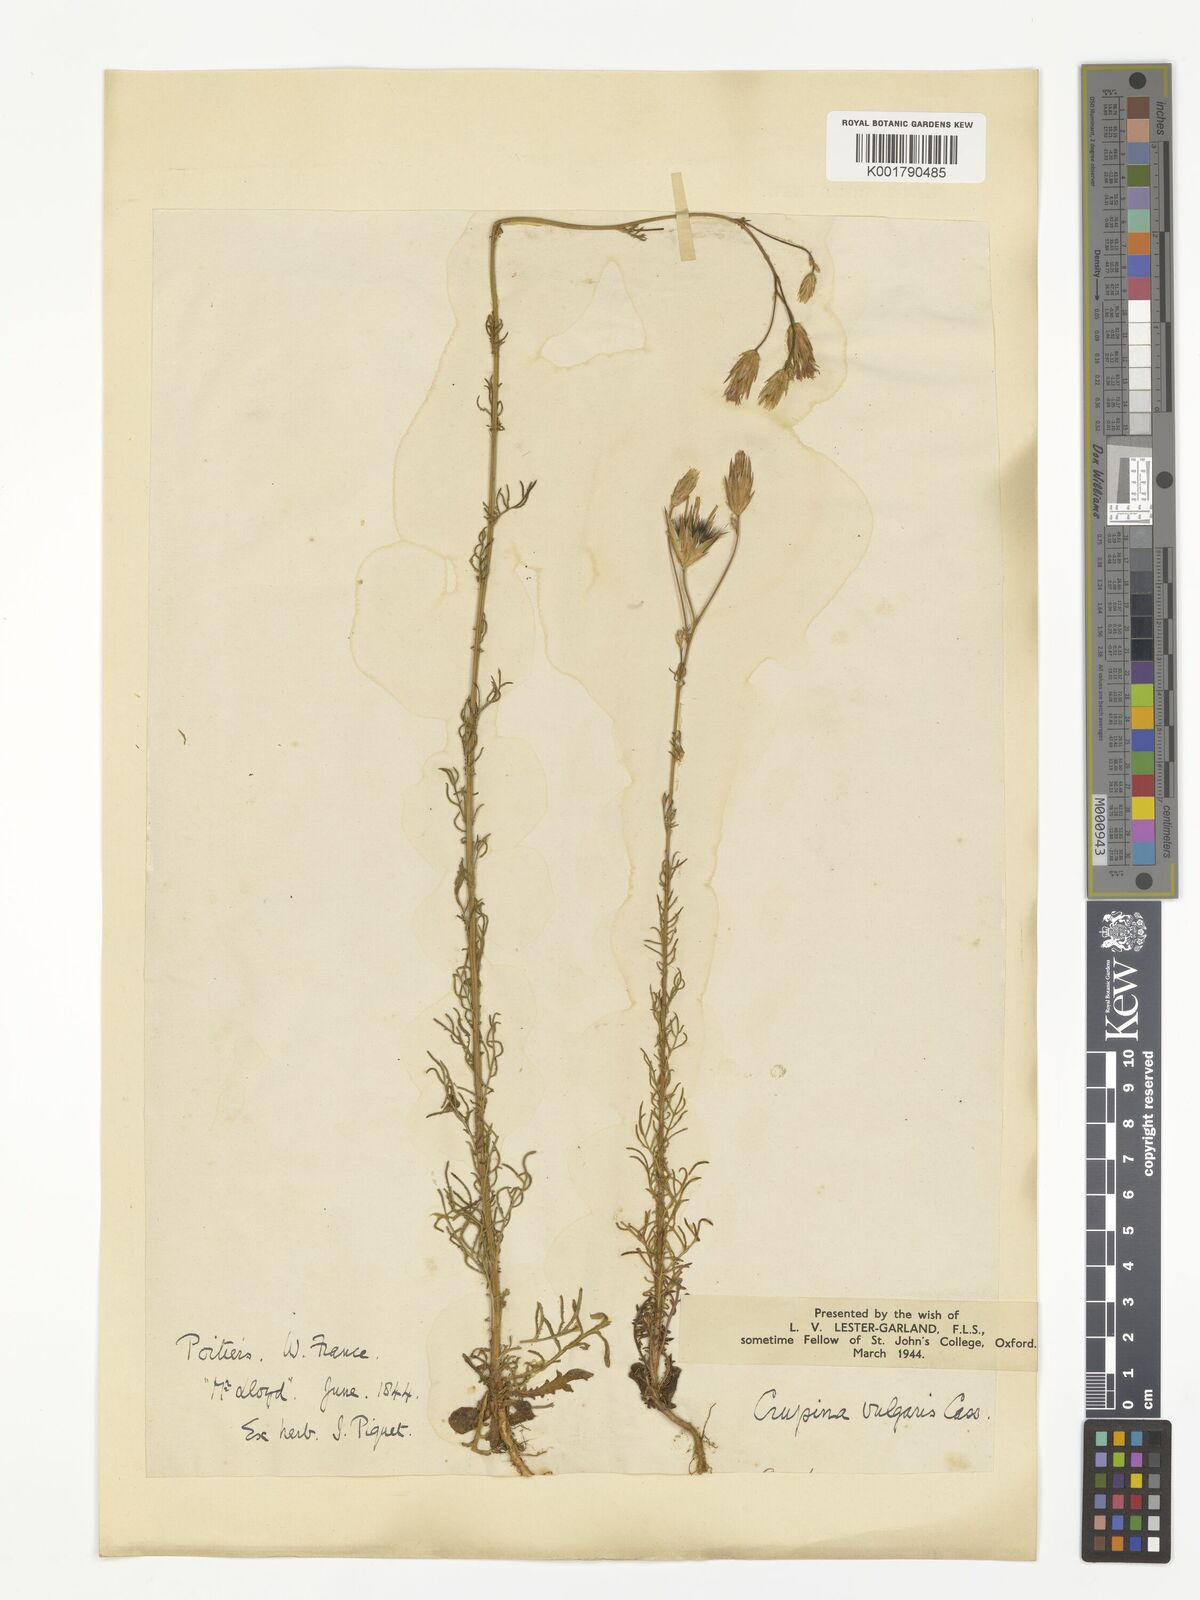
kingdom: Plantae
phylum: Tracheophyta
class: Magnoliopsida
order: Asterales
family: Asteraceae
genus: Crupina
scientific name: Crupina vulgaris
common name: Common crupina
